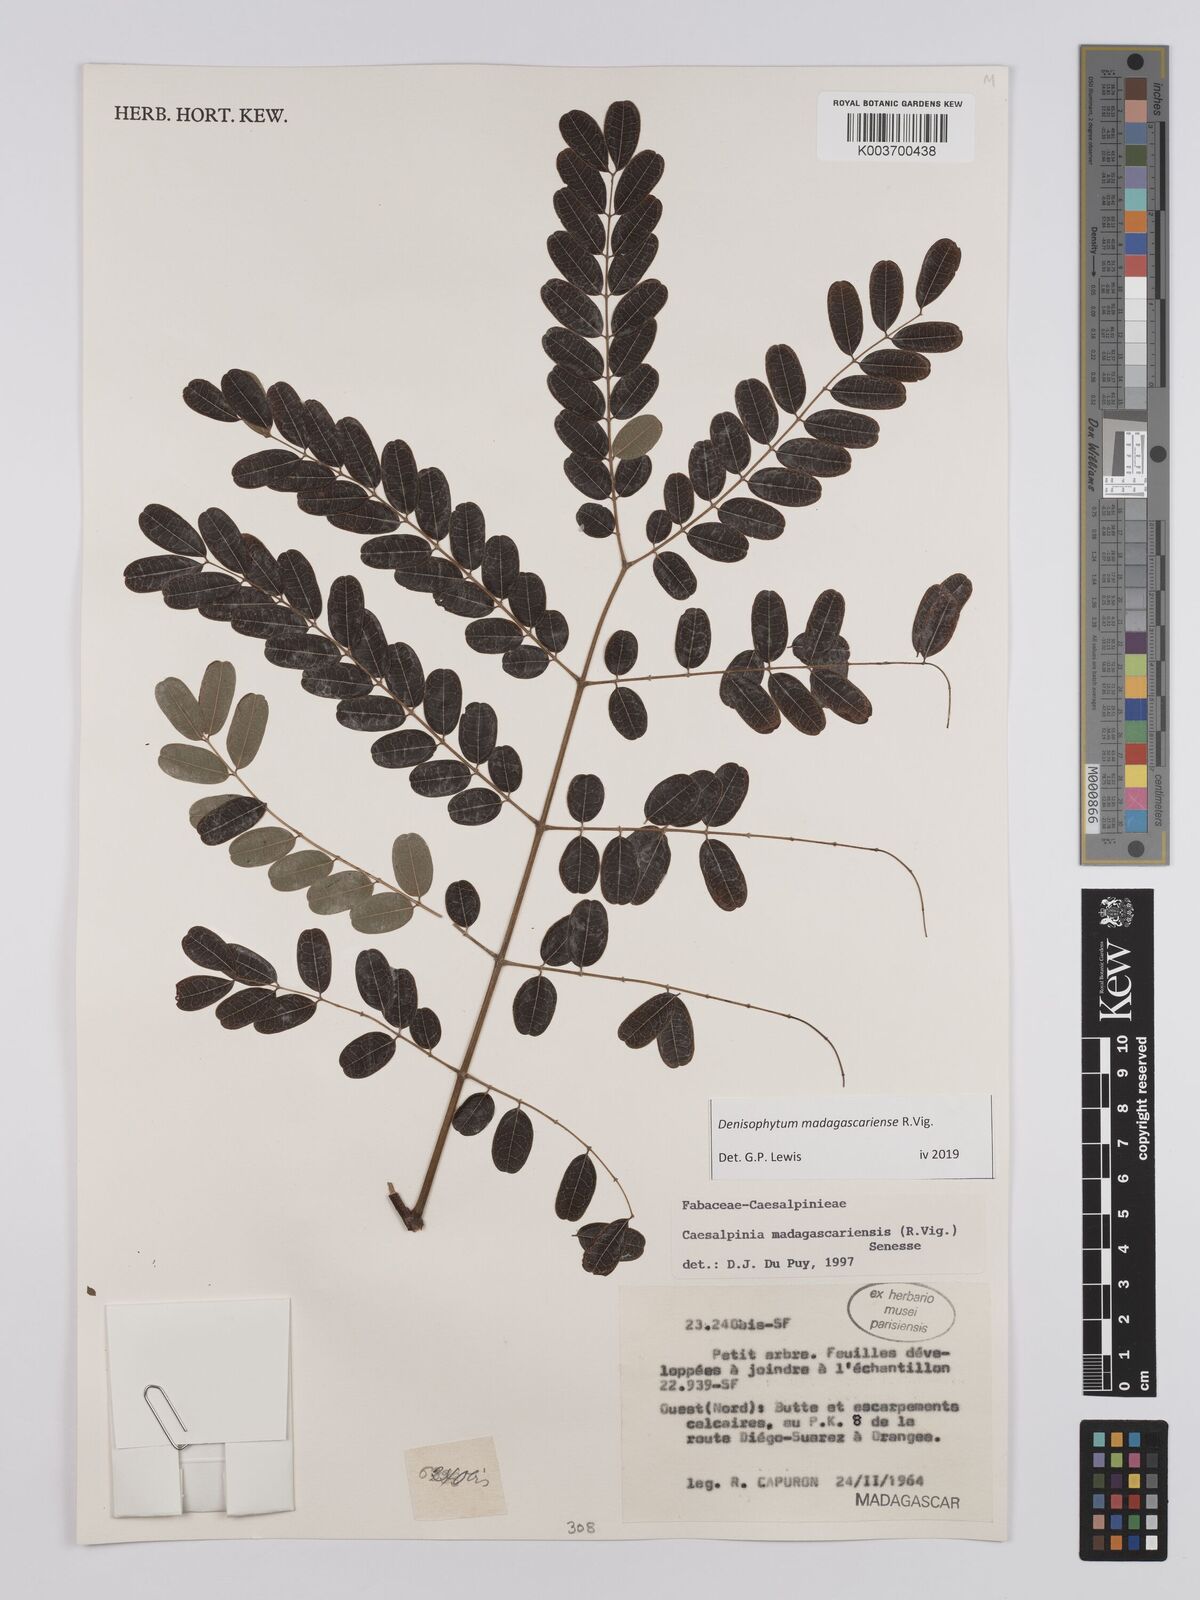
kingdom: Plantae
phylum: Tracheophyta
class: Magnoliopsida
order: Fabales
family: Fabaceae
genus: Denisophytum
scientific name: Denisophytum madagascariense
